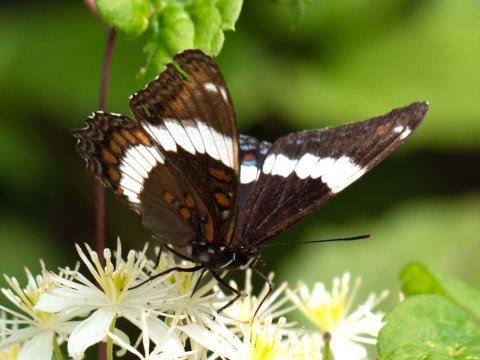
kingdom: Animalia
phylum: Arthropoda
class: Insecta
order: Lepidoptera
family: Nymphalidae
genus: Limenitis
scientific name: Limenitis arthemis
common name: Red-spotted Admiral
